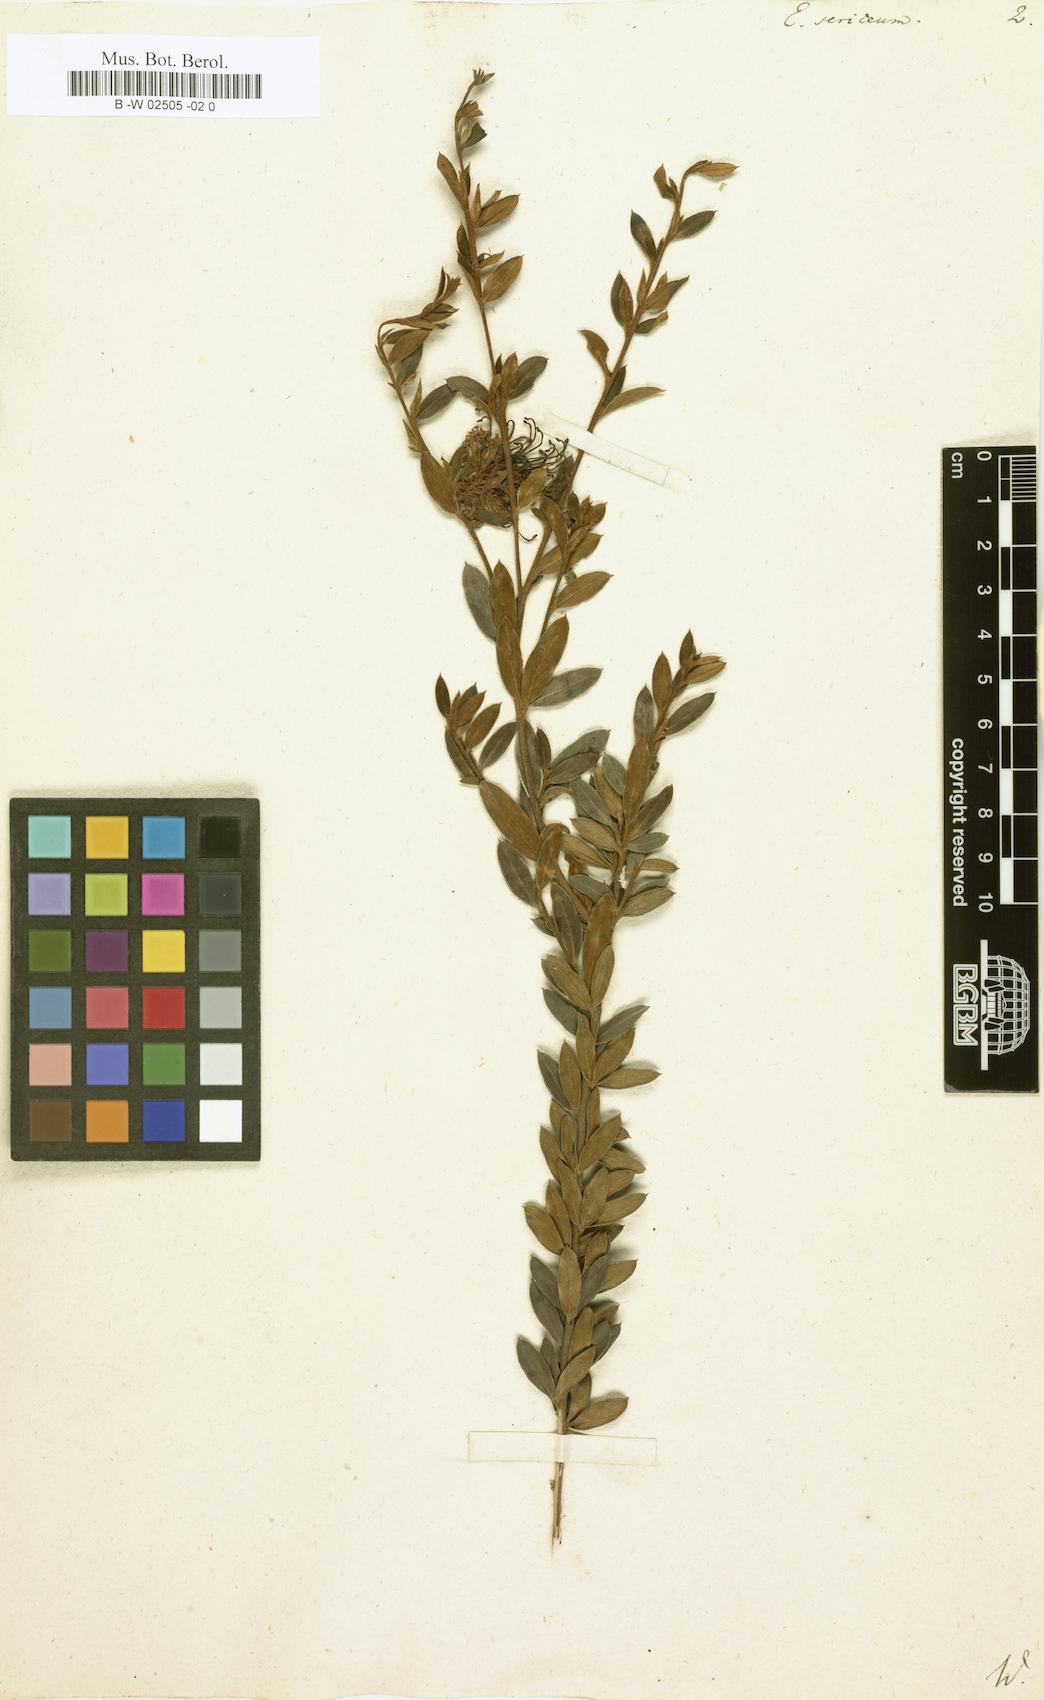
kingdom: Plantae
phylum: Tracheophyta
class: Magnoliopsida
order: Proteales
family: Proteaceae
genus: Grevillea
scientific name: Grevillea sericea
